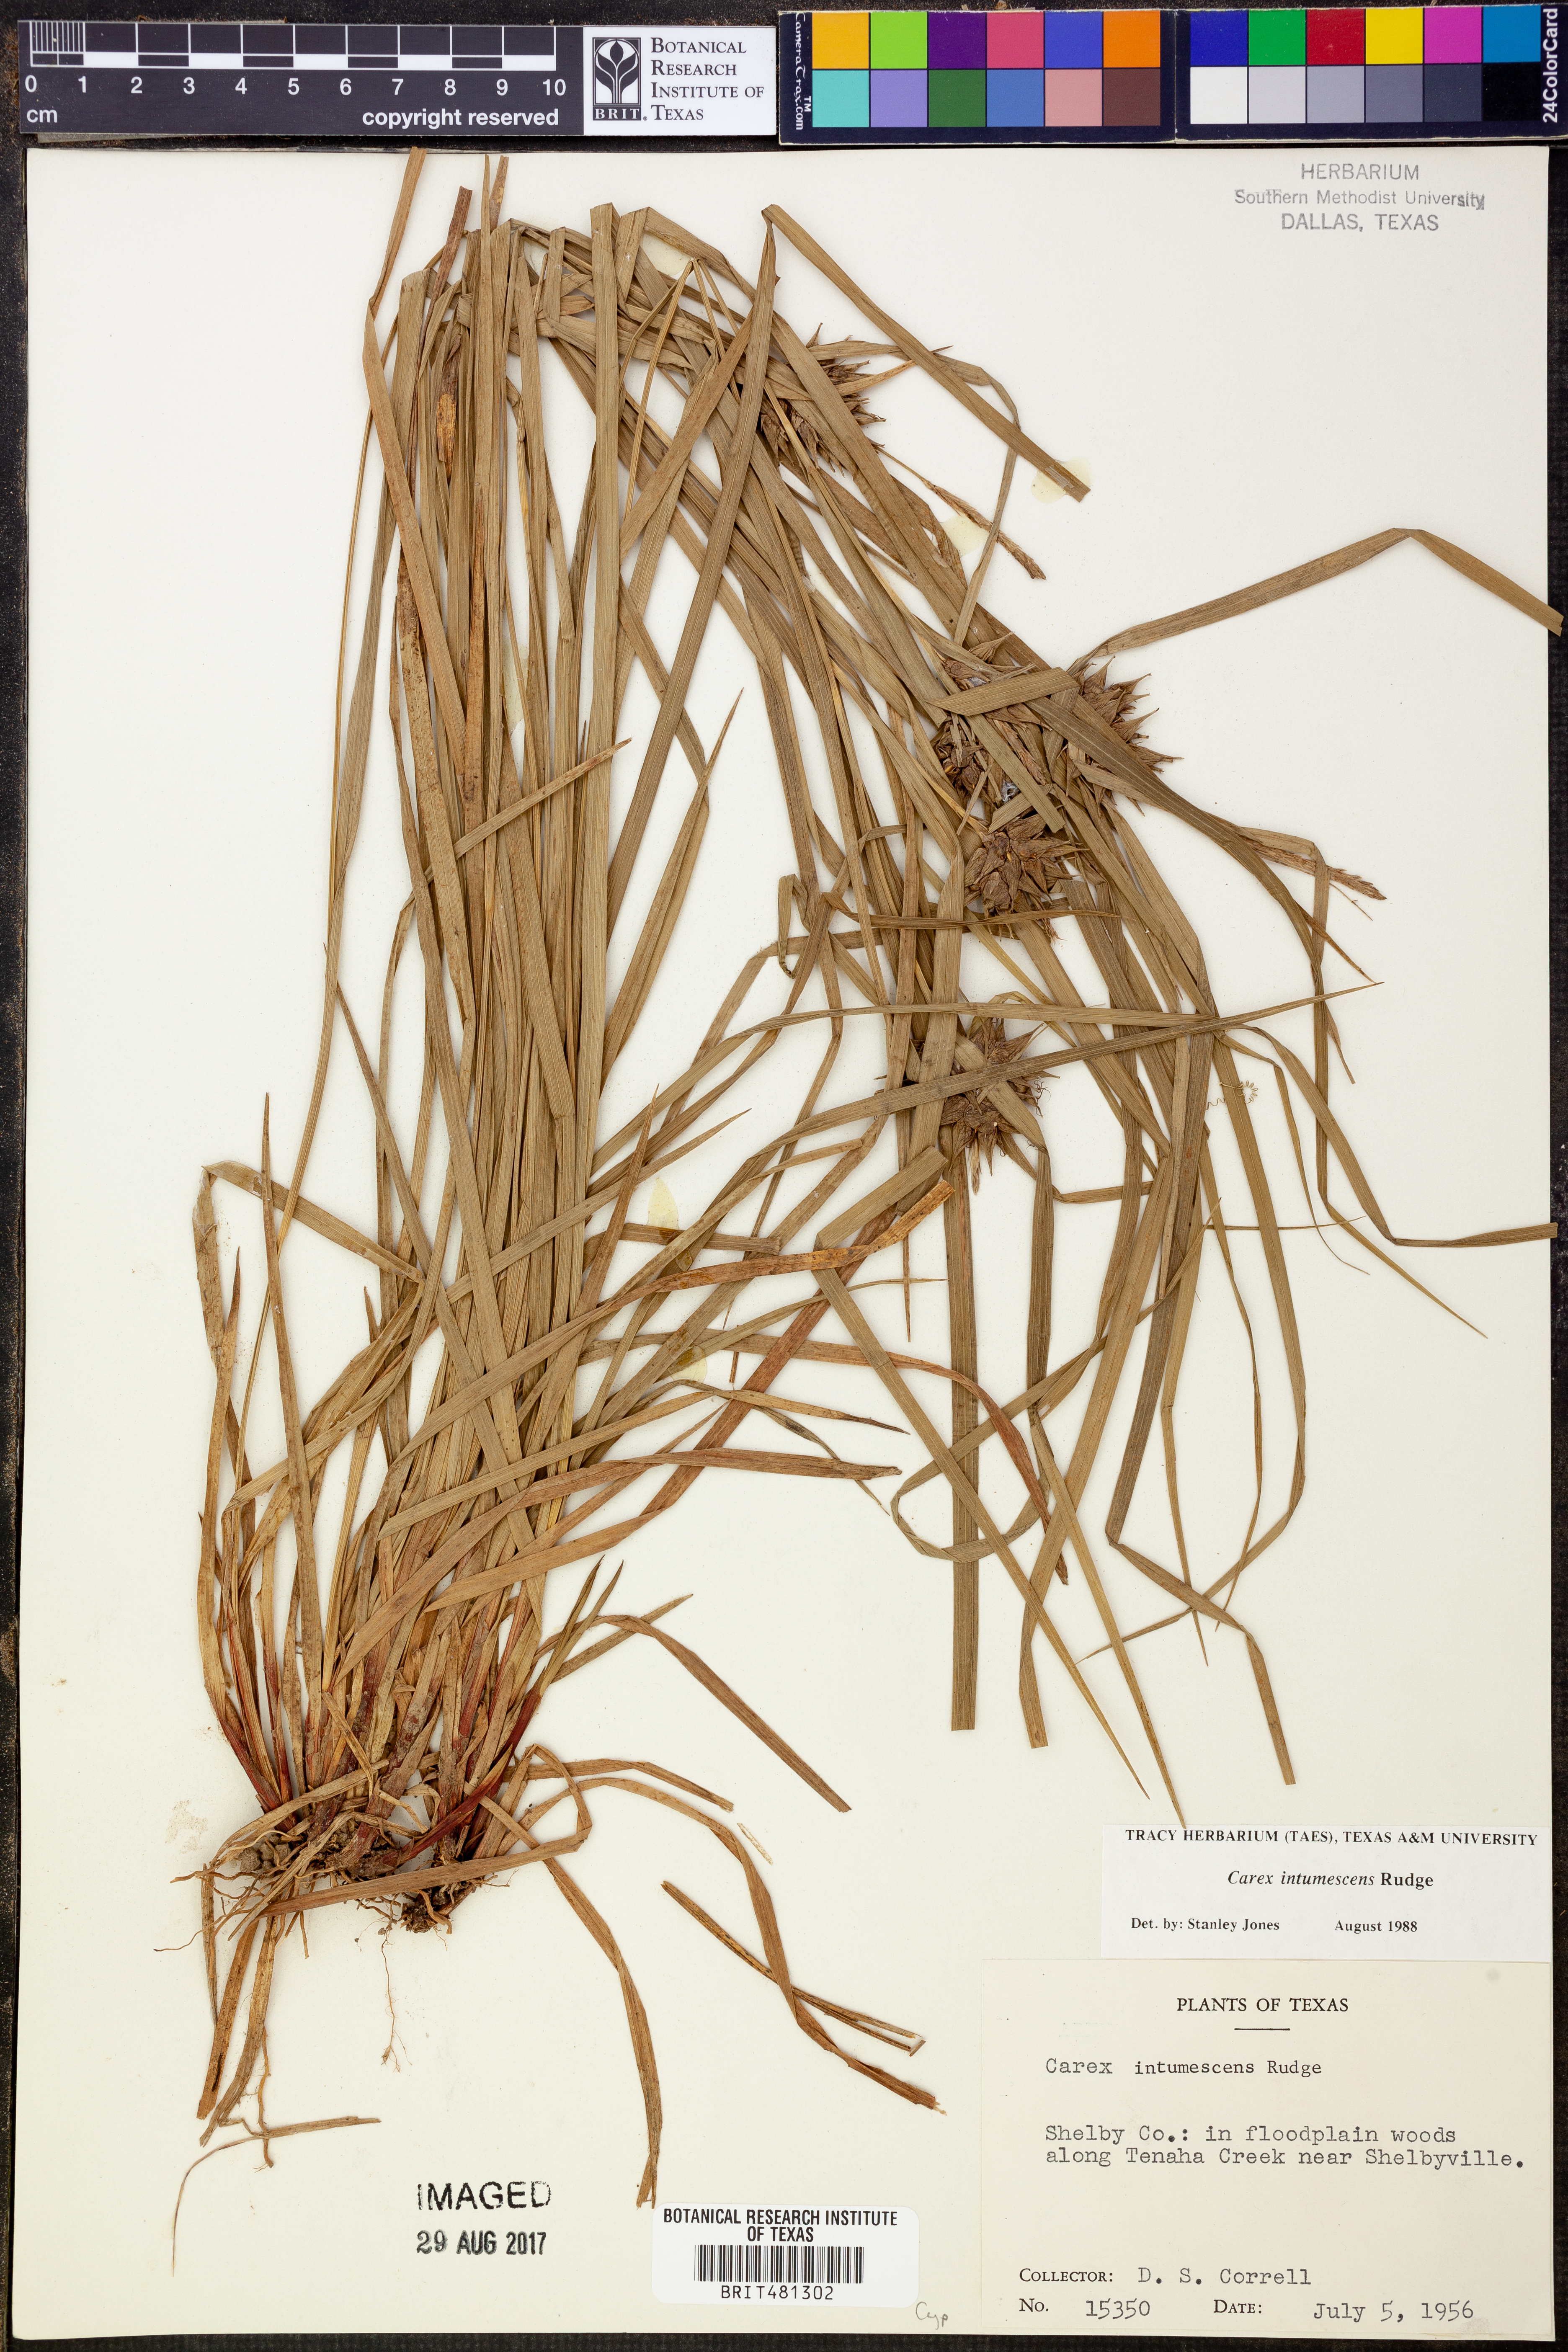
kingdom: Plantae
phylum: Tracheophyta
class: Liliopsida
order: Poales
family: Cyperaceae
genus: Carex
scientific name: Carex intumescens
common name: Greater bladder sedge
